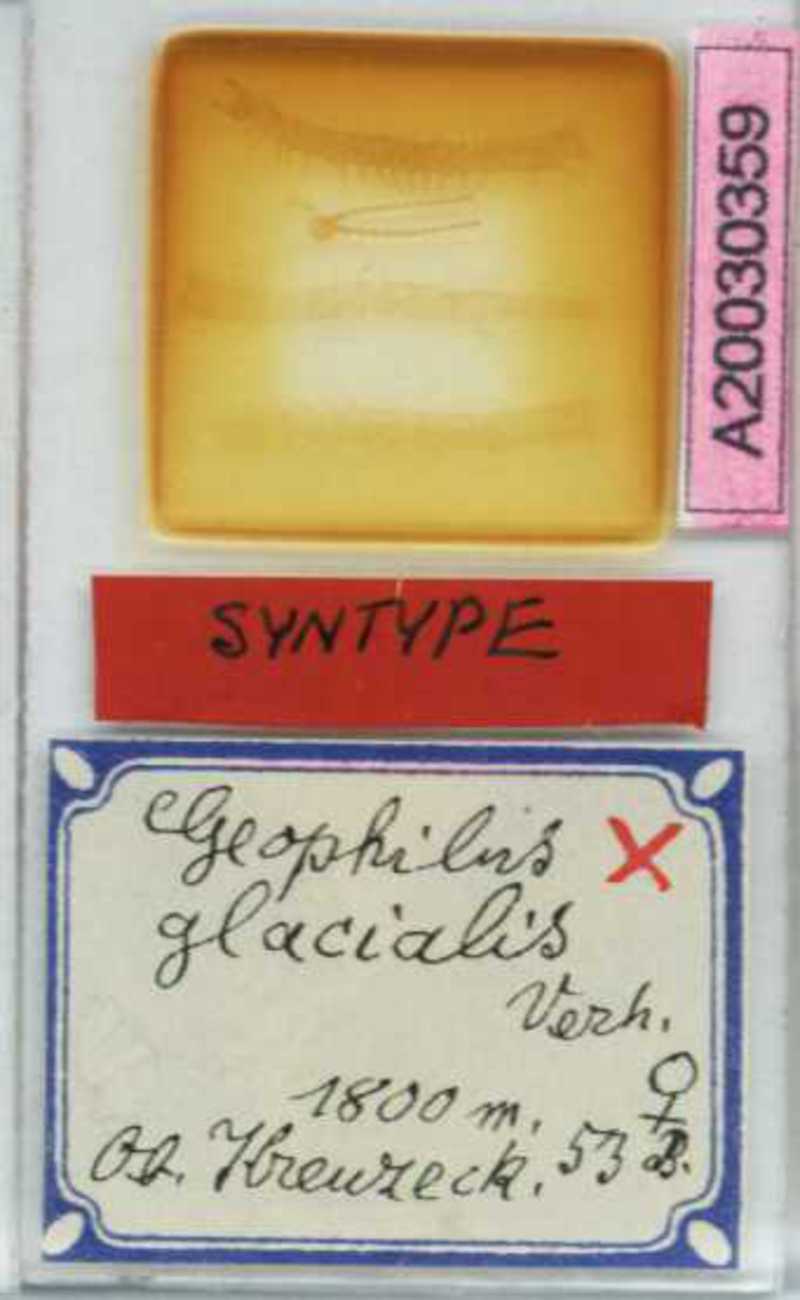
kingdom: Animalia
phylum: Arthropoda
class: Chilopoda
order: Geophilomorpha
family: Geophilidae
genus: Geophilus
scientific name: Geophilus insculptus
